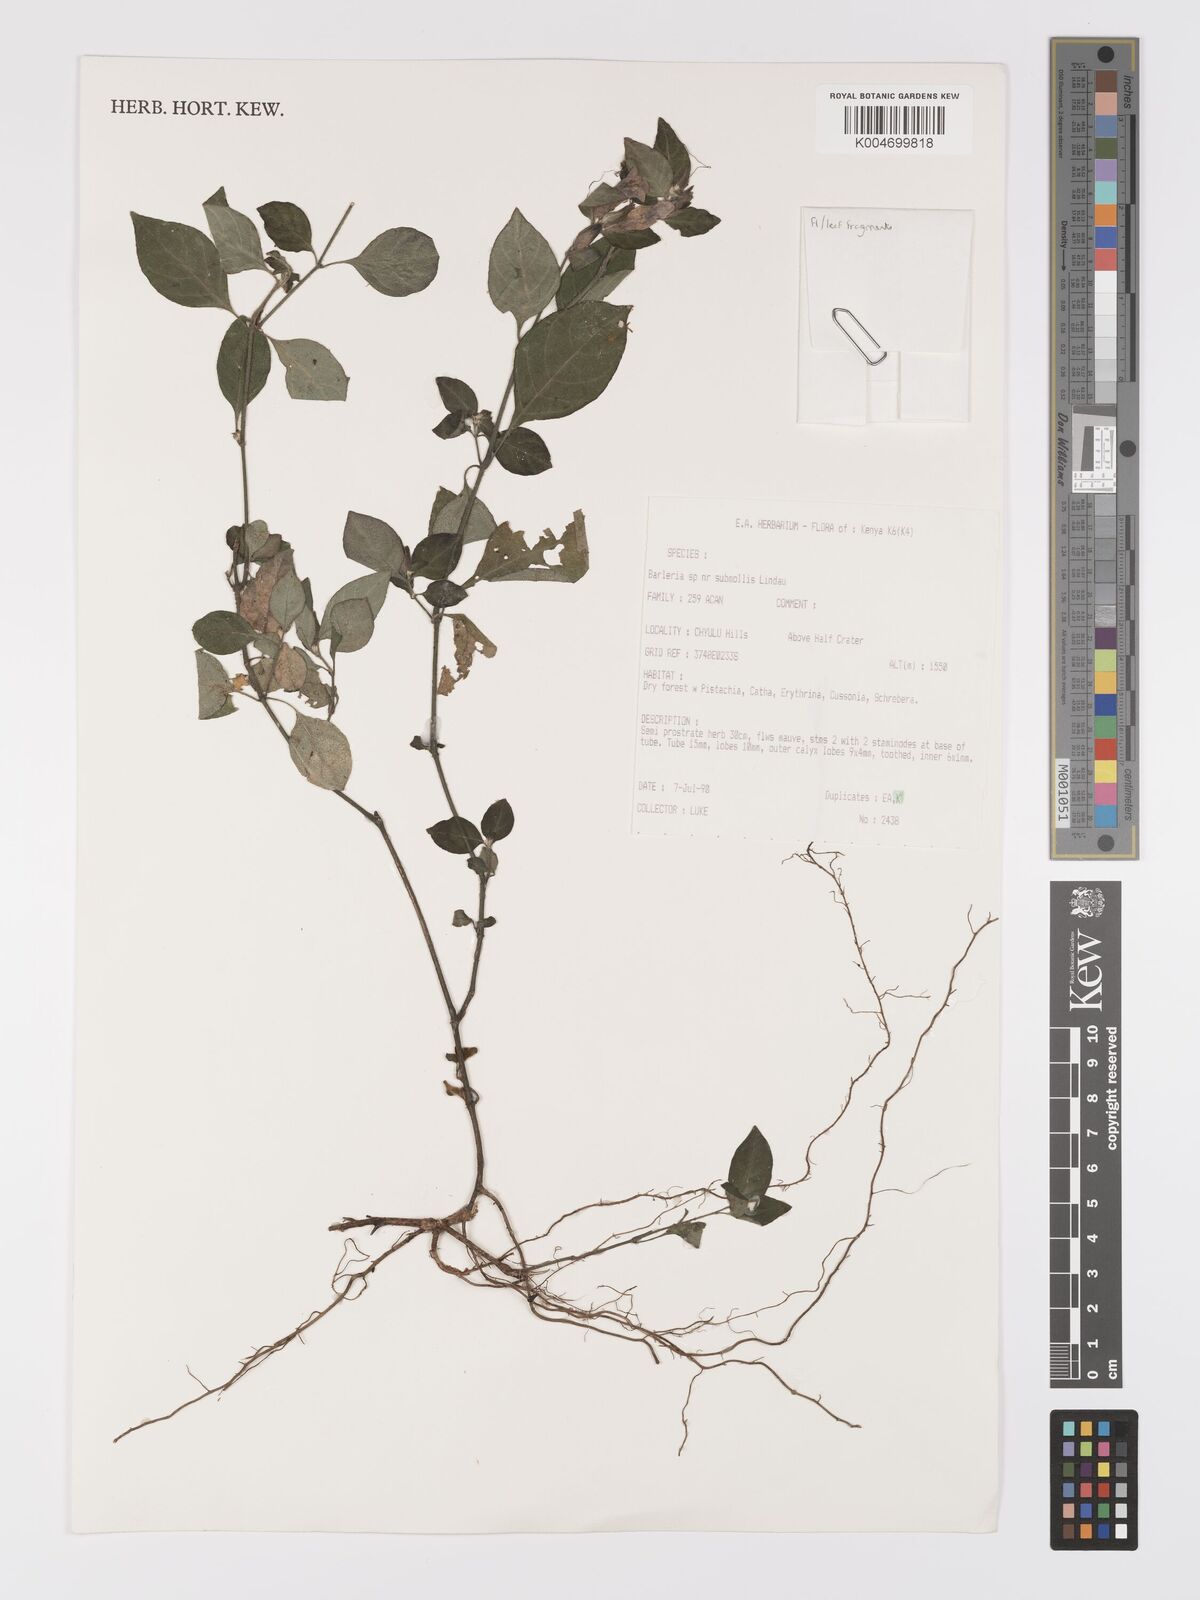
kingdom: Plantae
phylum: Tracheophyta
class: Magnoliopsida
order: Lamiales
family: Acanthaceae
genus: Barleria
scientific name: Barleria ventricosa
